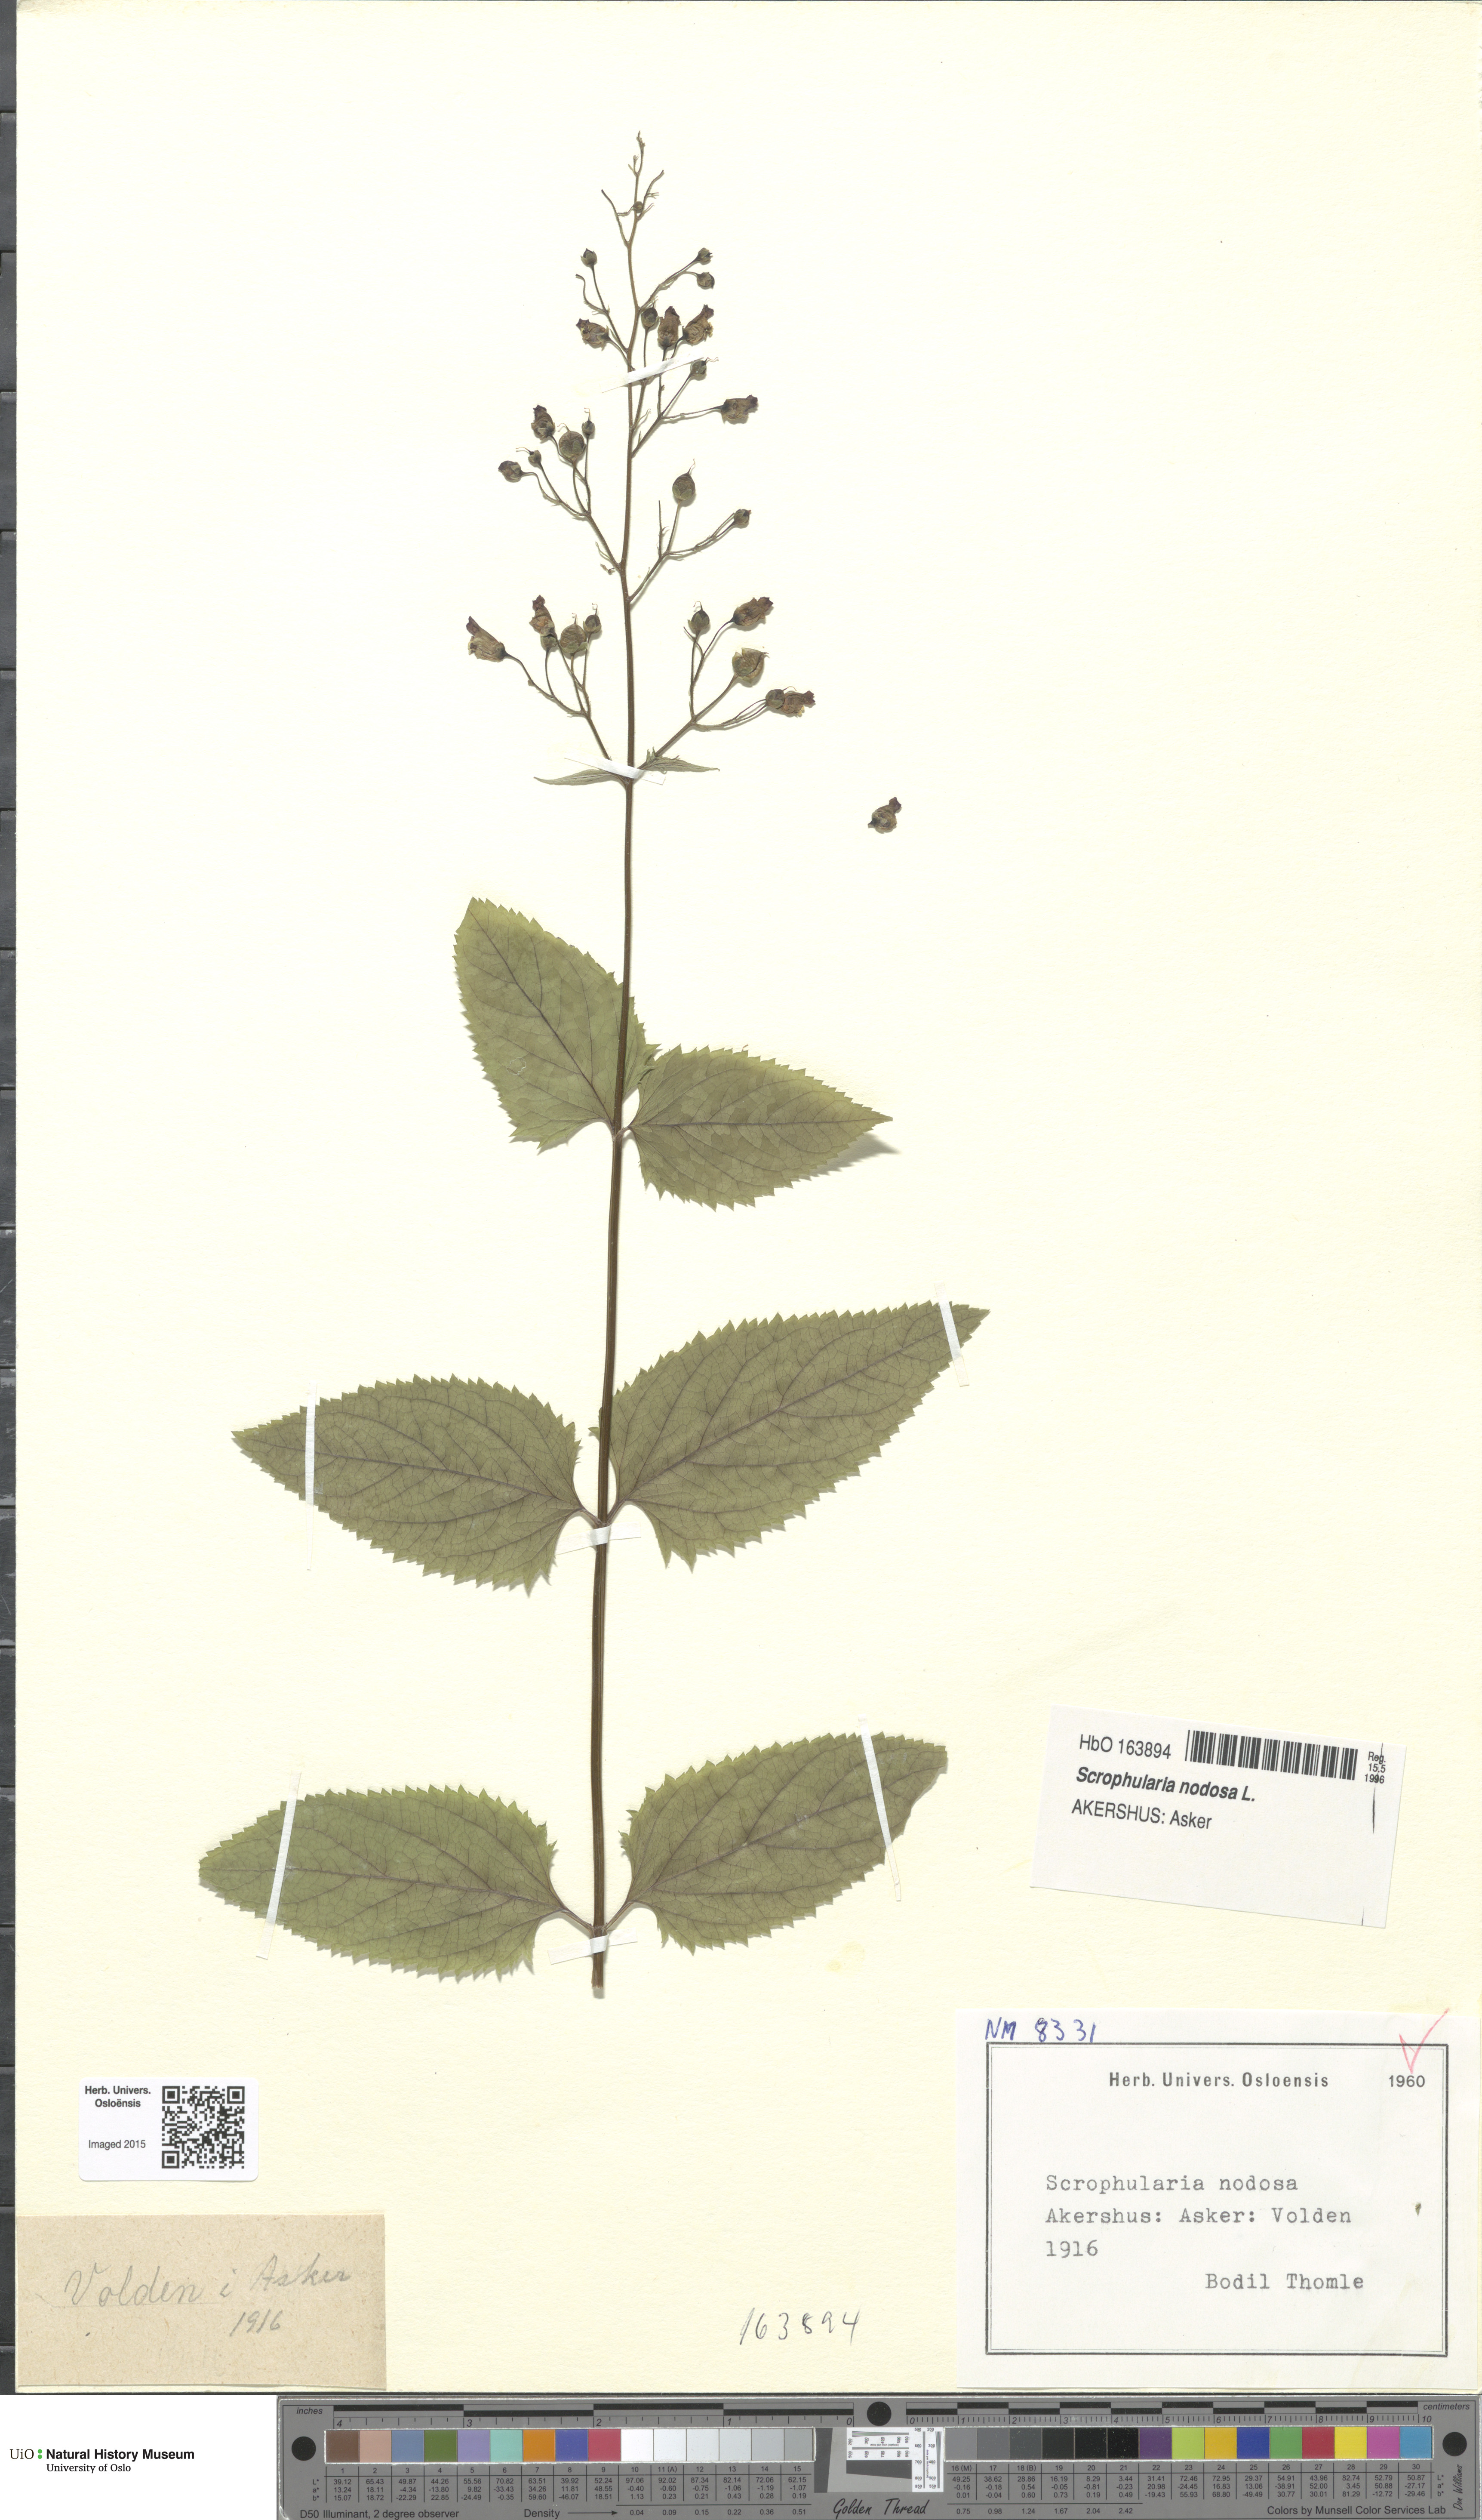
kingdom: Plantae
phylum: Tracheophyta
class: Magnoliopsida
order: Lamiales
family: Scrophulariaceae
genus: Scrophularia
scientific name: Scrophularia nodosa
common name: Common figwort
